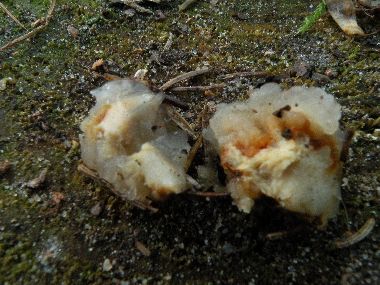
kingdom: Fungi
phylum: Basidiomycota
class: Tremellomycetes
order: Tremellales
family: Naemateliaceae
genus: Naematelia
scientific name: Naematelia encephala
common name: fyrre-bævresvamp
